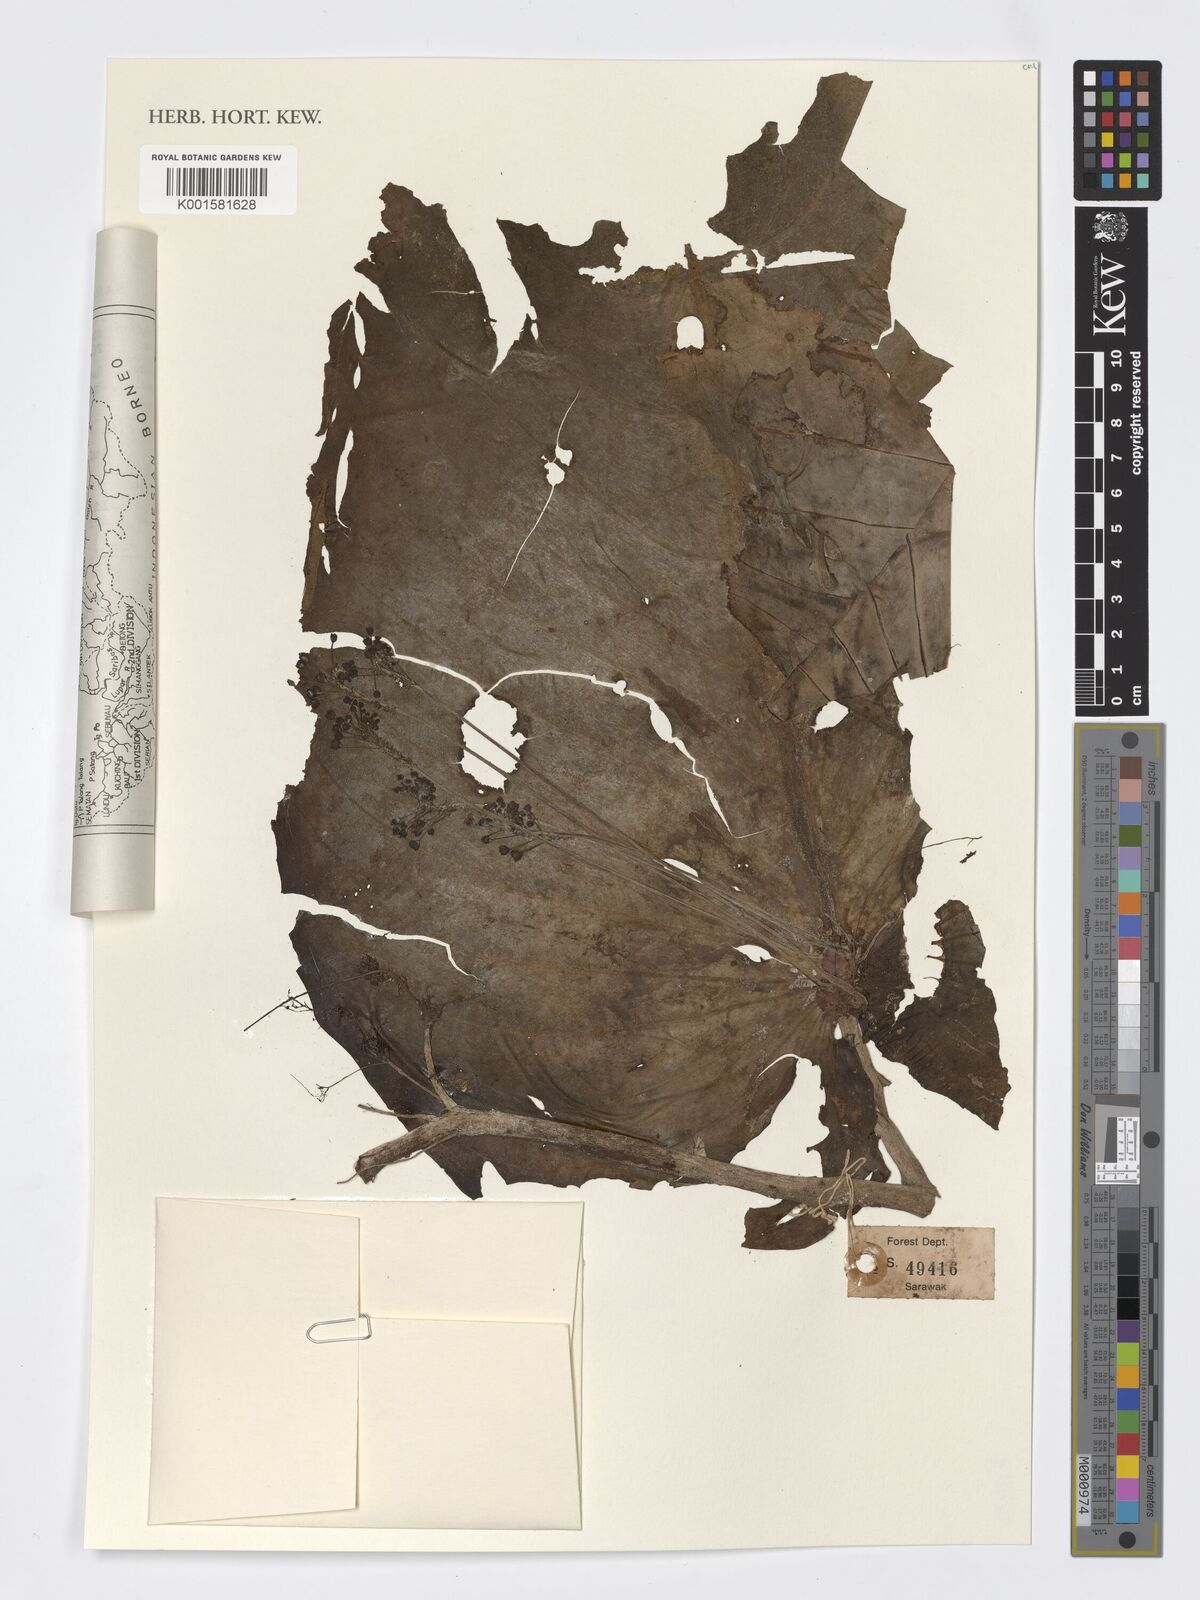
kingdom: Plantae
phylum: Tracheophyta
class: Magnoliopsida
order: Lamiales
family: Gesneriaceae
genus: Monophyllaea
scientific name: Monophyllaea
